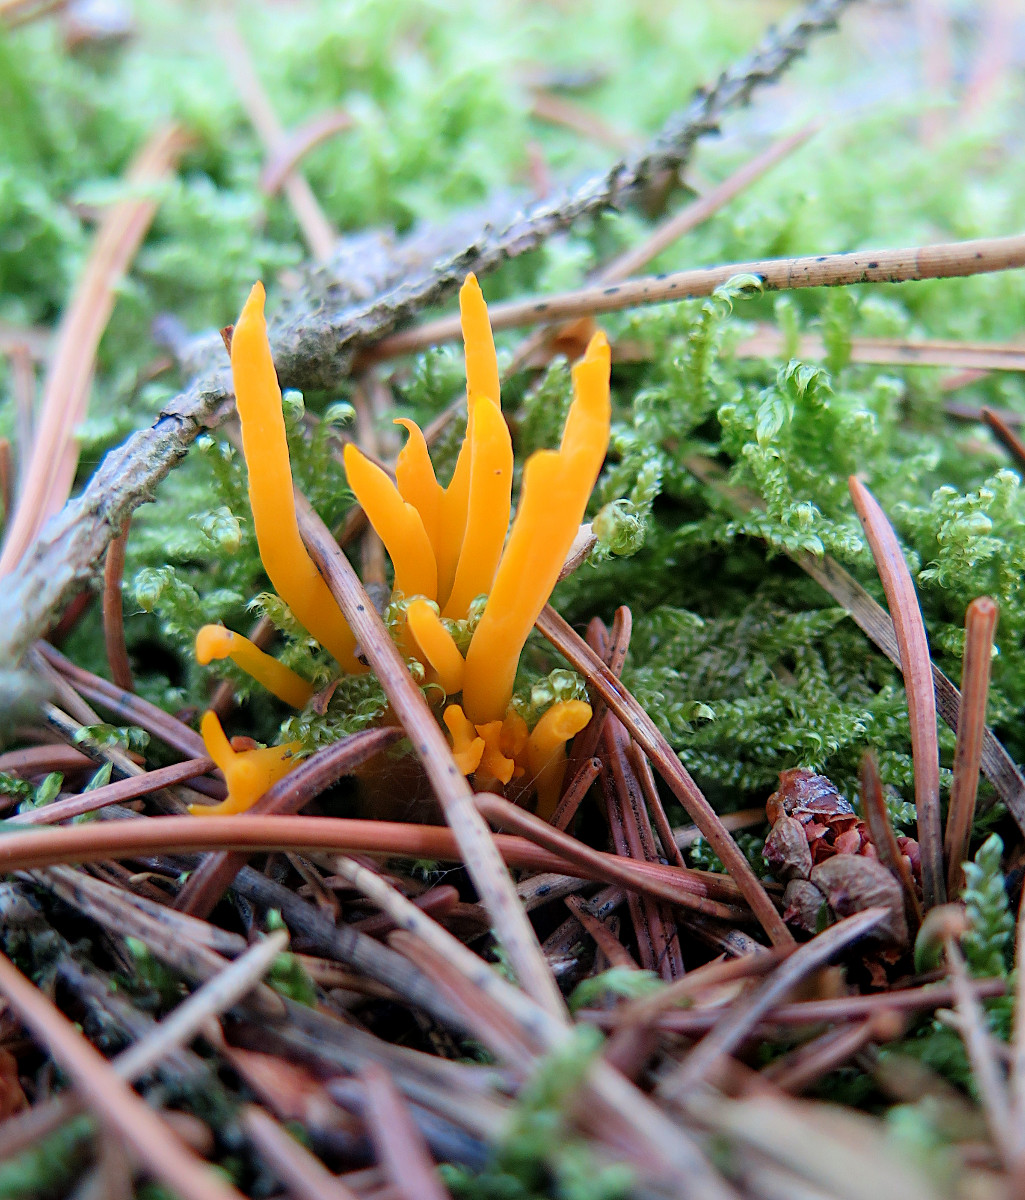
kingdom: Fungi
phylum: Basidiomycota
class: Dacrymycetes
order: Dacrymycetales
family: Dacrymycetaceae
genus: Calocera
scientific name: Calocera viscosa
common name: almindelig guldgaffel
